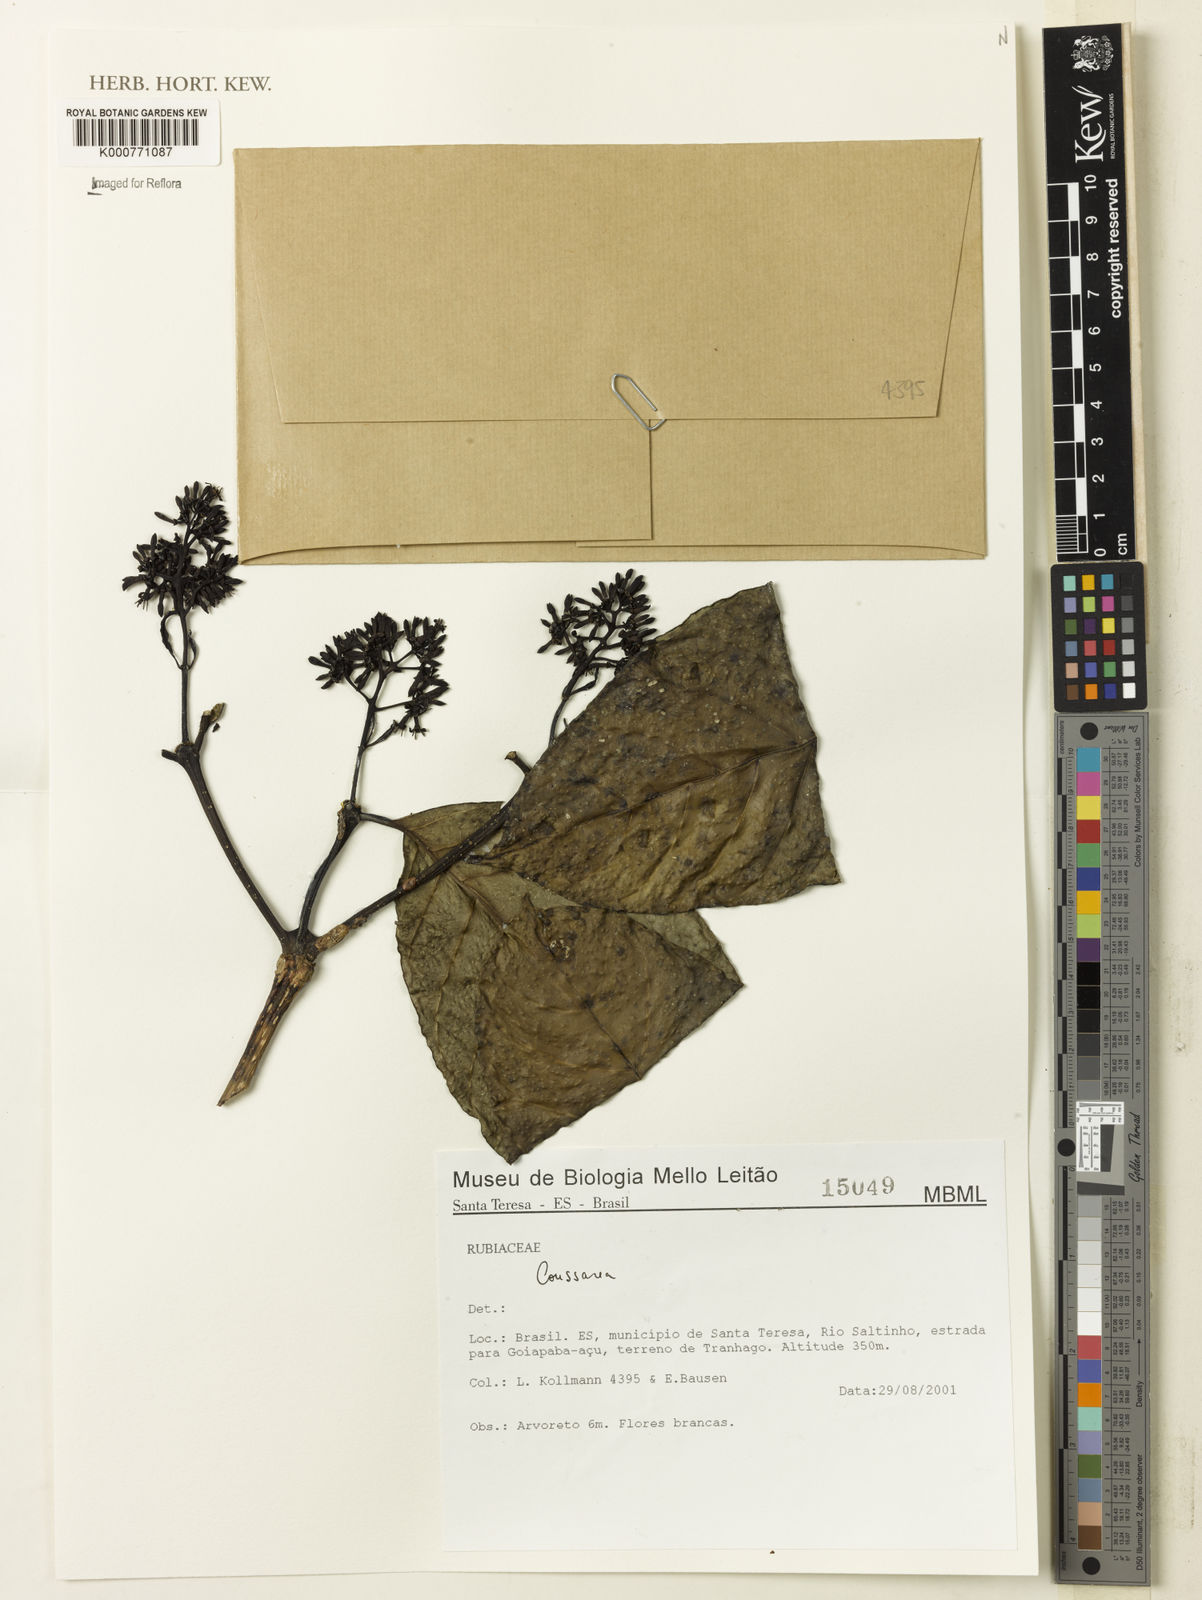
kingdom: Plantae
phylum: Tracheophyta
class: Magnoliopsida
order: Gentianales
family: Rubiaceae
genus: Coussarea
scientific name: Coussarea
